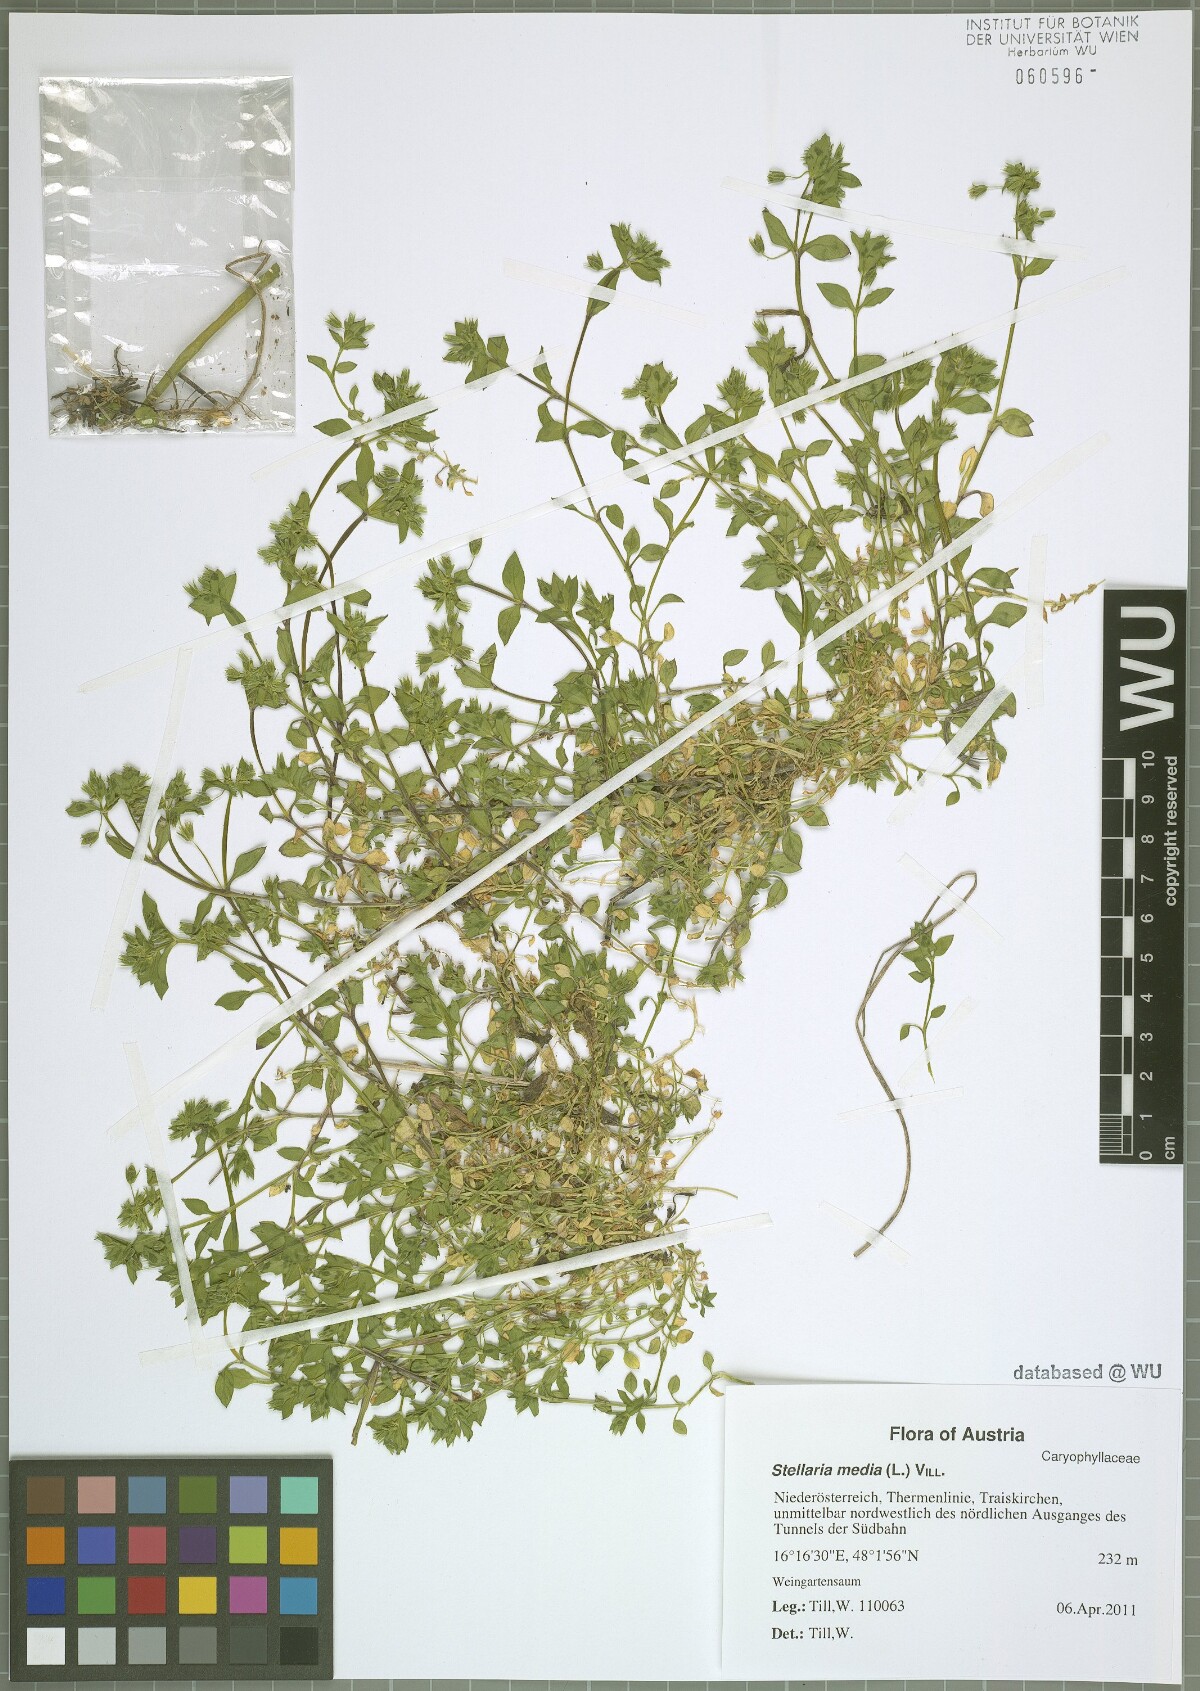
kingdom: Plantae
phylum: Tracheophyta
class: Magnoliopsida
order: Caryophyllales
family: Caryophyllaceae
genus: Stellaria
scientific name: Stellaria media
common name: Common chickweed
